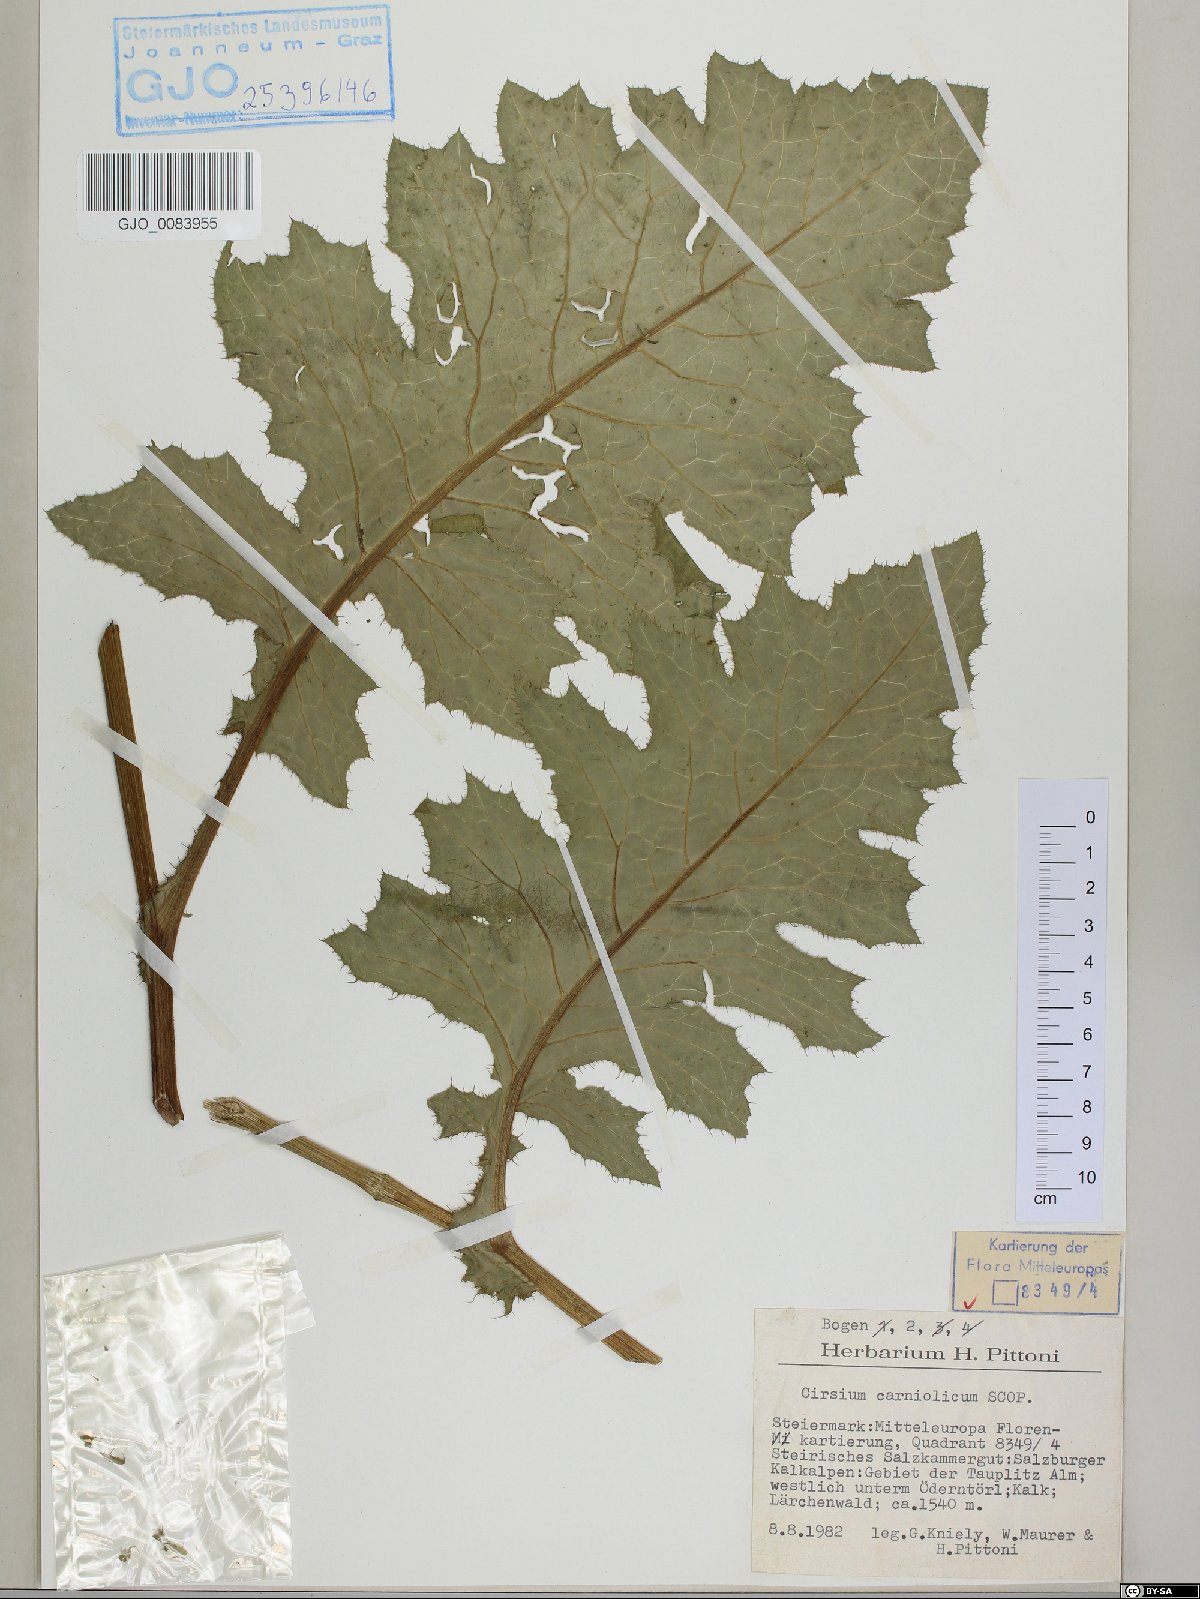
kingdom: Plantae
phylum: Tracheophyta
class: Magnoliopsida
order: Asterales
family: Asteraceae
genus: Cirsium
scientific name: Cirsium carniolicum
